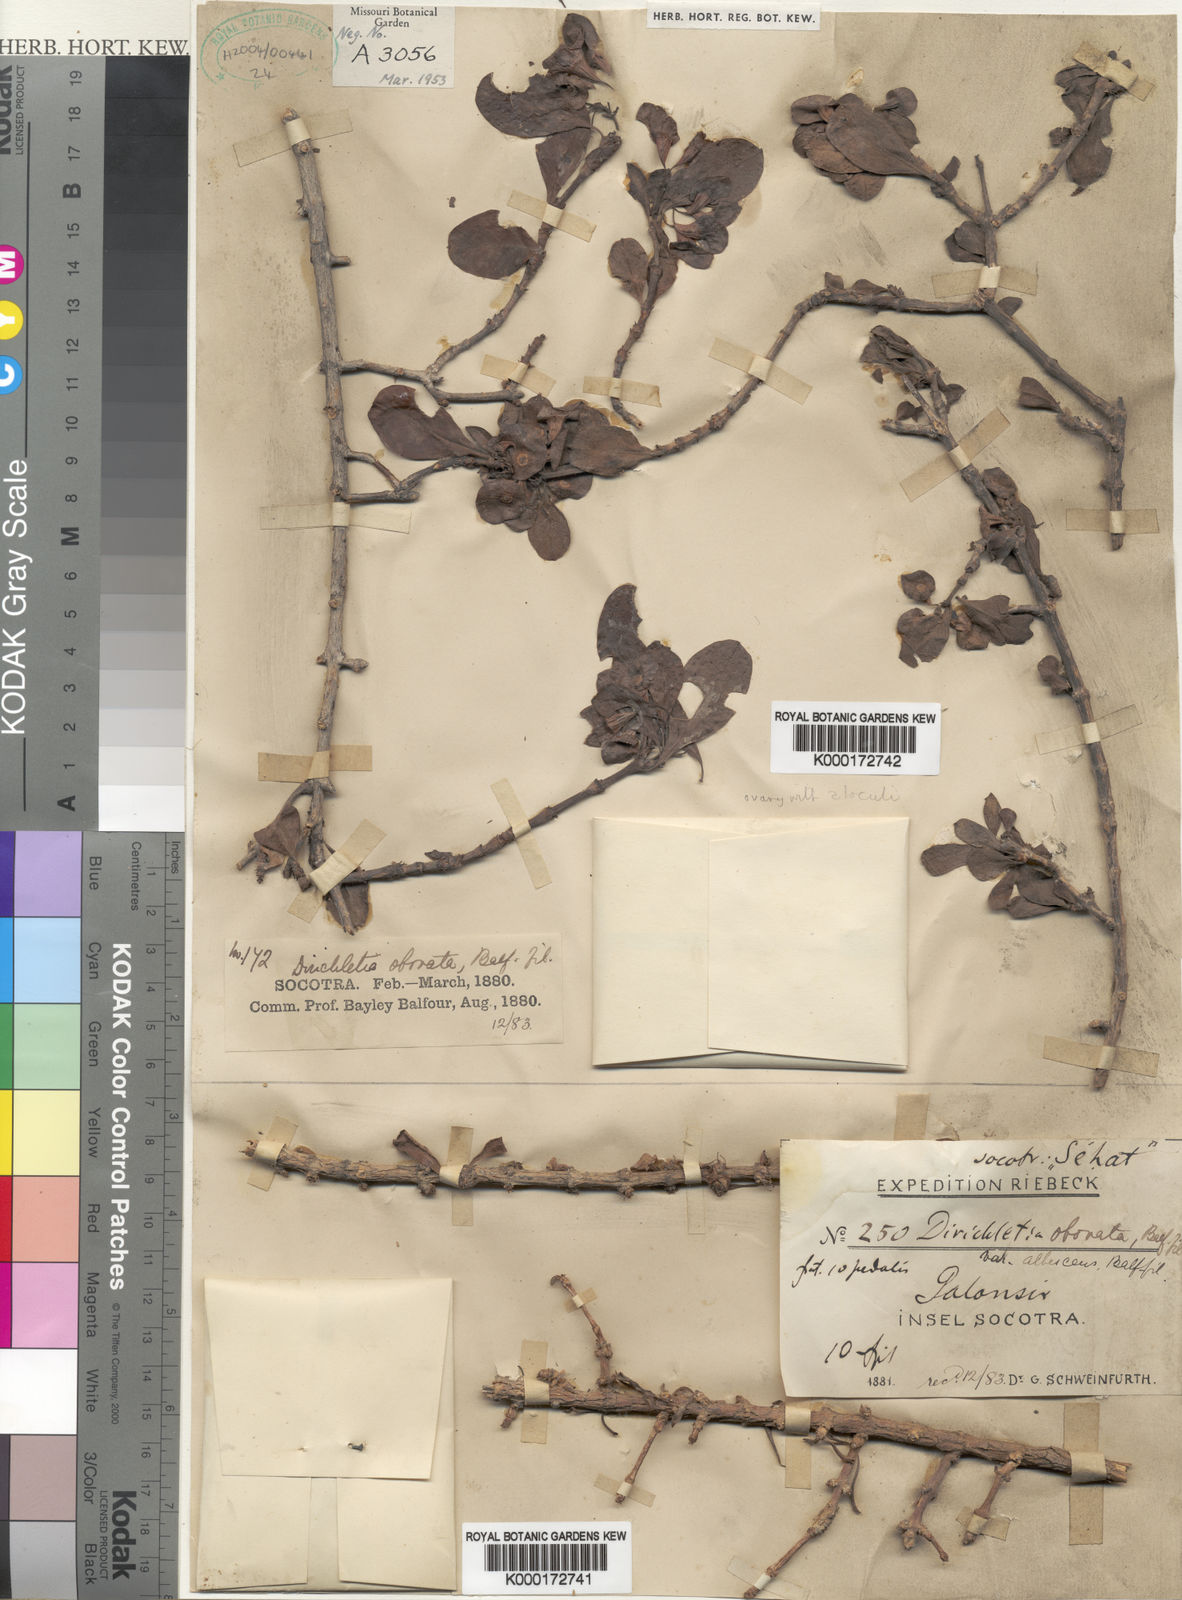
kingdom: Plantae
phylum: Tracheophyta
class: Magnoliopsida
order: Gentianales
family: Rubiaceae
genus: Dirichletia
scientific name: Dirichletia obovata
